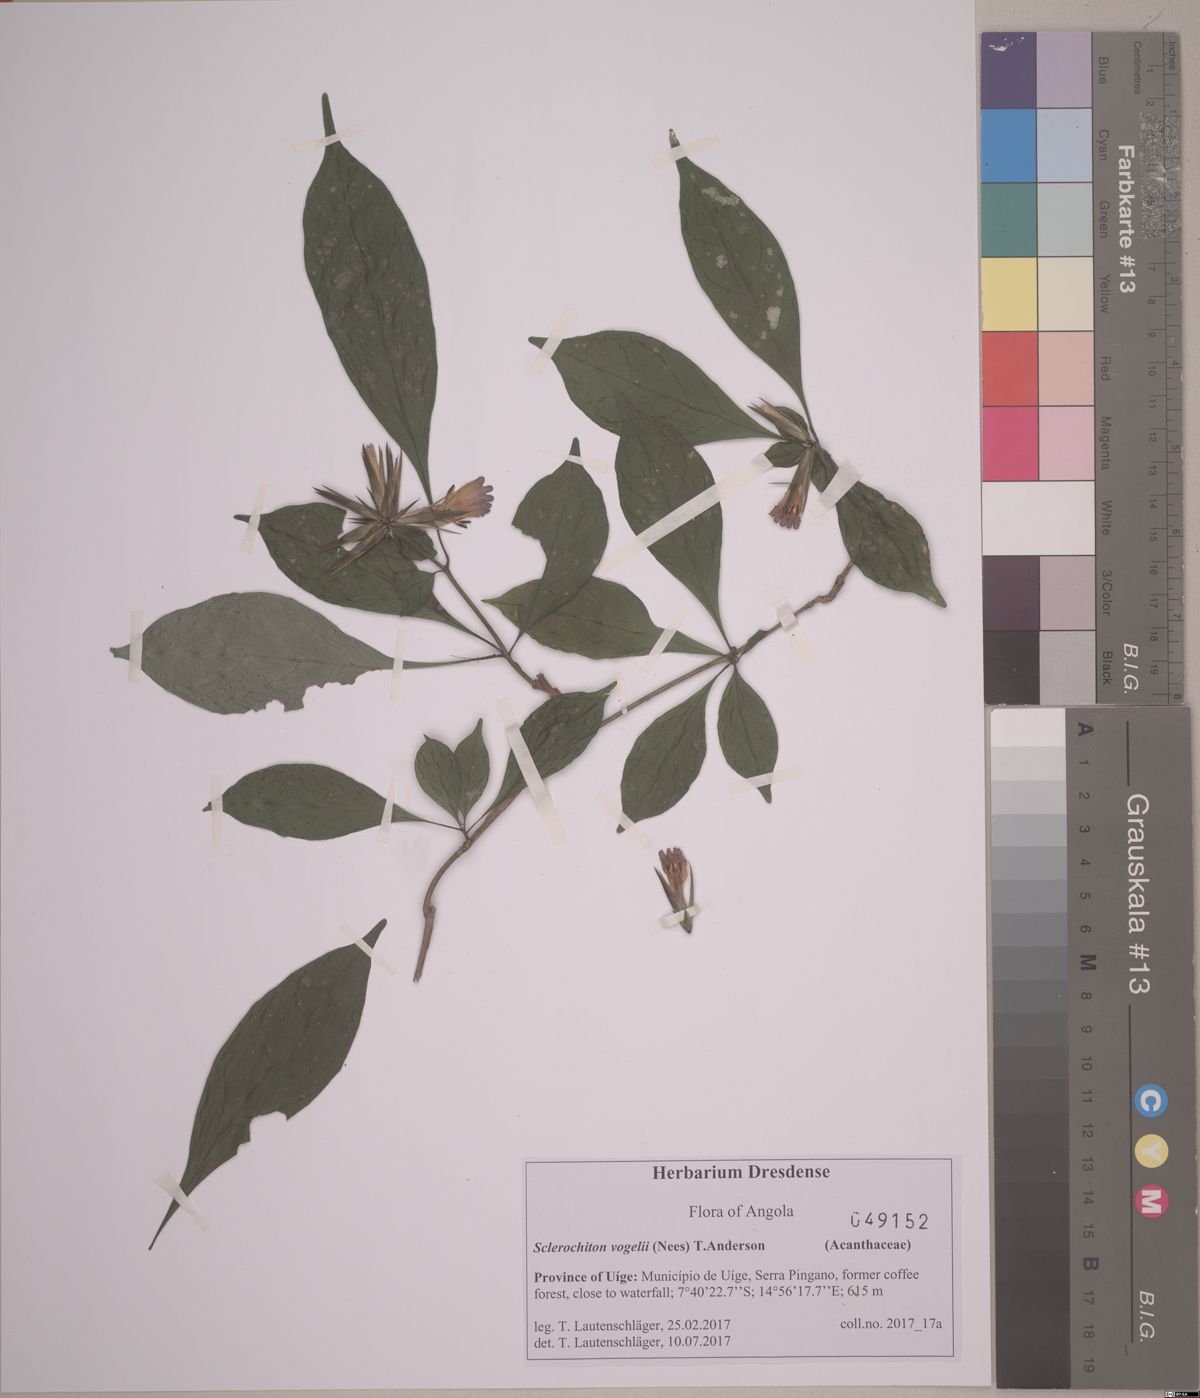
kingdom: Plantae
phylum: Tracheophyta
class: Magnoliopsida
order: Lamiales
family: Acanthaceae
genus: Sclerochiton
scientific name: Sclerochiton vogelii
